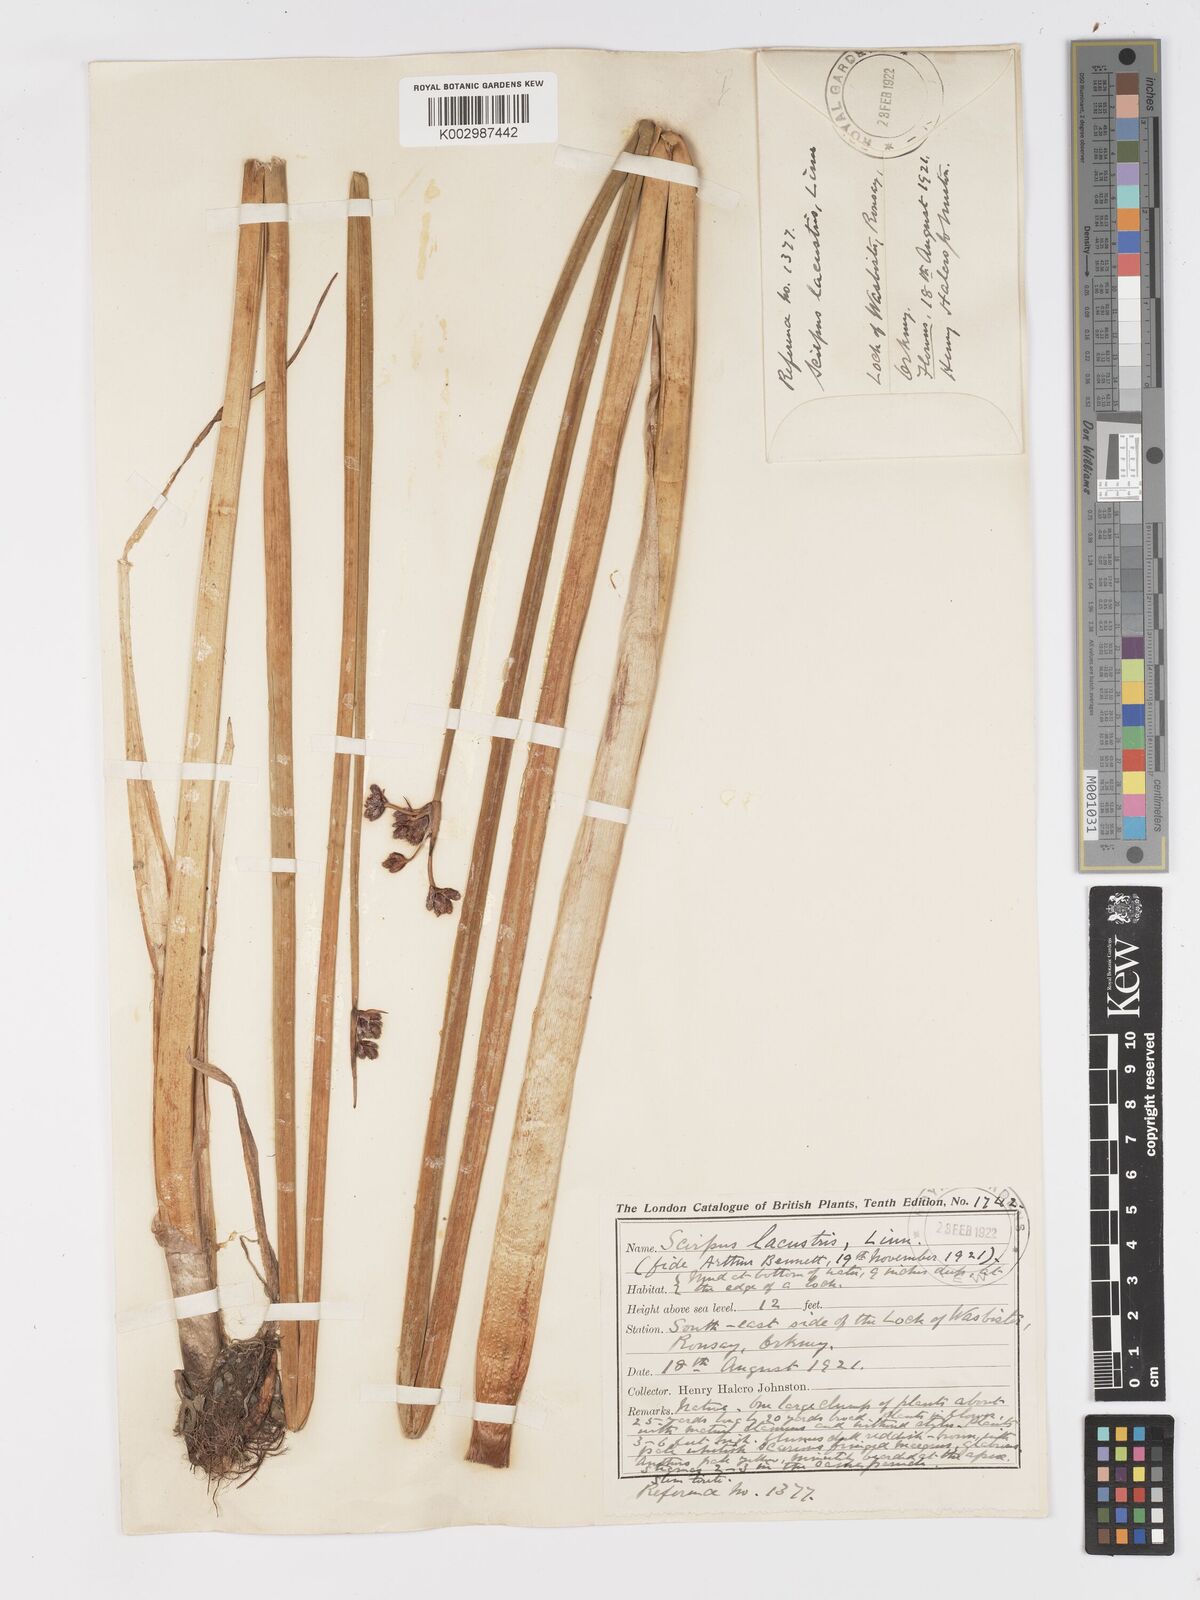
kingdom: Plantae
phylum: Tracheophyta
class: Liliopsida
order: Poales
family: Cyperaceae
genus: Schoenoplectus
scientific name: Schoenoplectus lacustris
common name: Common club-rush
